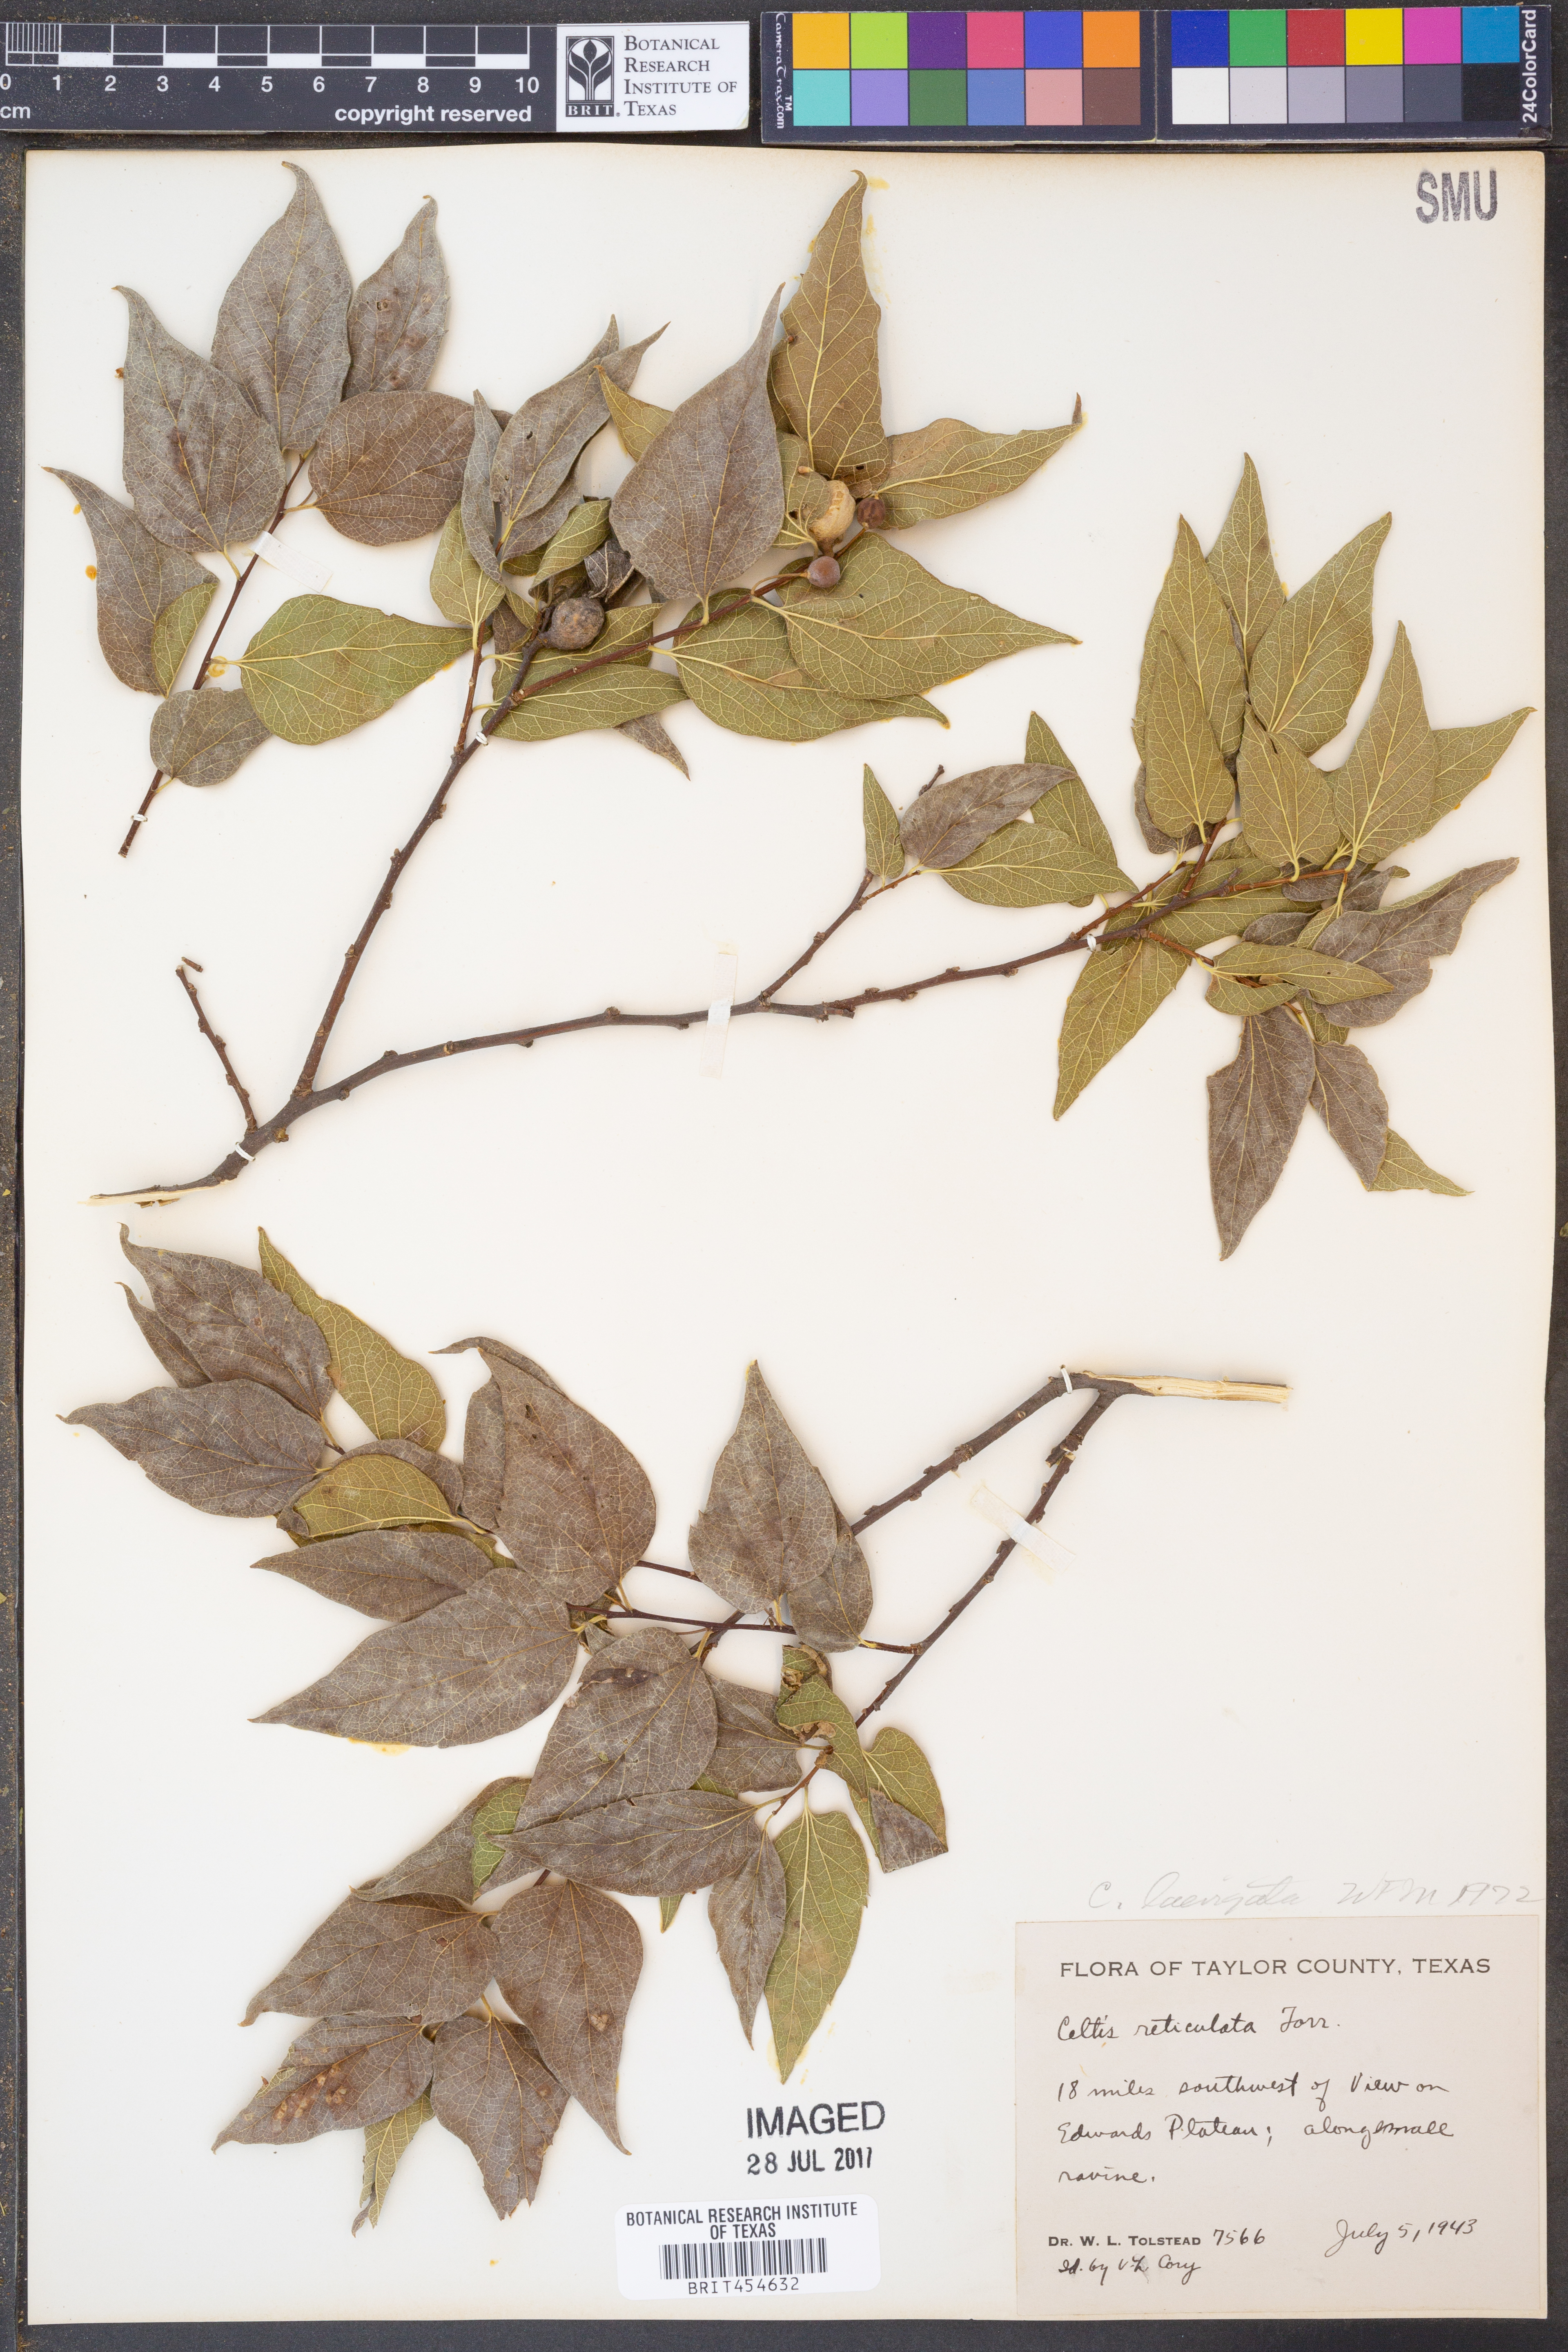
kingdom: Plantae
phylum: Tracheophyta
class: Magnoliopsida
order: Rosales
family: Cannabaceae
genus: Celtis
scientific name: Celtis laevigata
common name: Sugarberry
